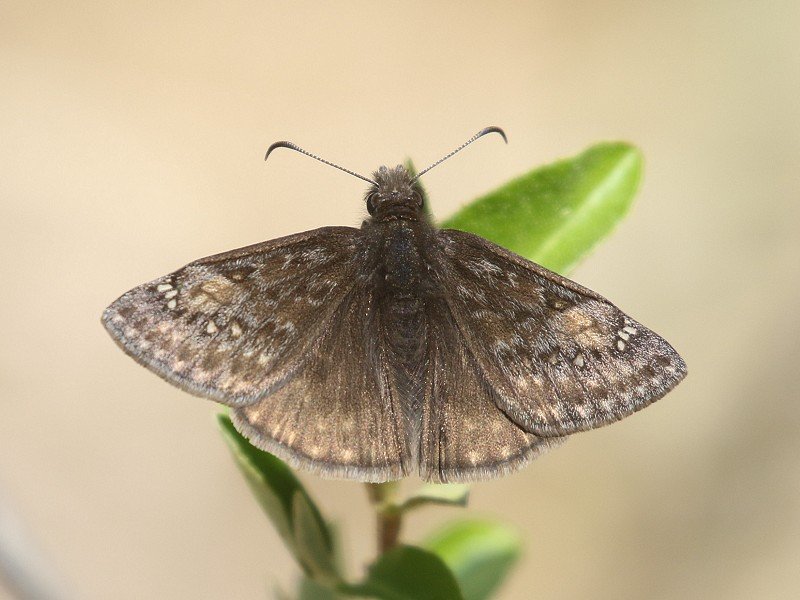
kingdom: Animalia
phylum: Arthropoda
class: Insecta
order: Lepidoptera
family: Hesperiidae
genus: Gesta
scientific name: Gesta
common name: Juvenal's Duskywing
